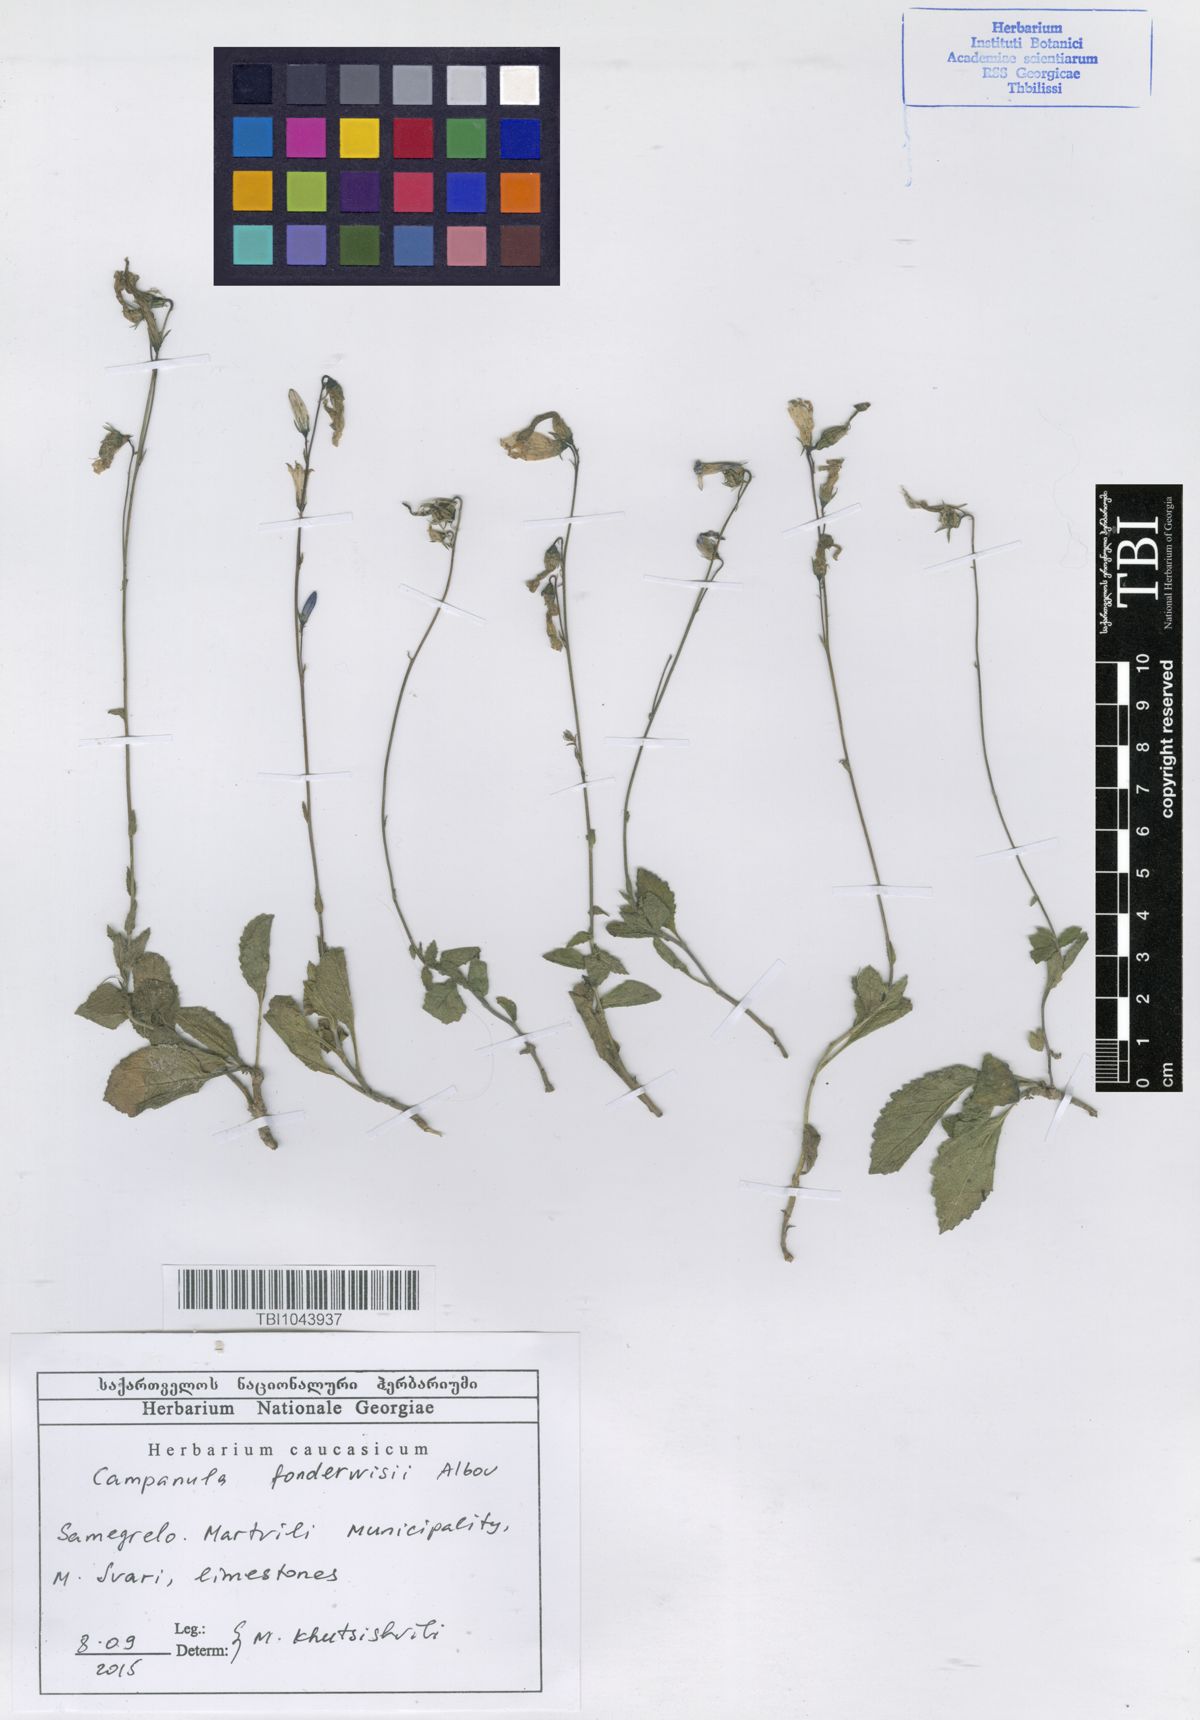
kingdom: Plantae
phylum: Tracheophyta
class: Magnoliopsida
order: Asterales
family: Campanulaceae
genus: Campanula
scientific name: Campanula
